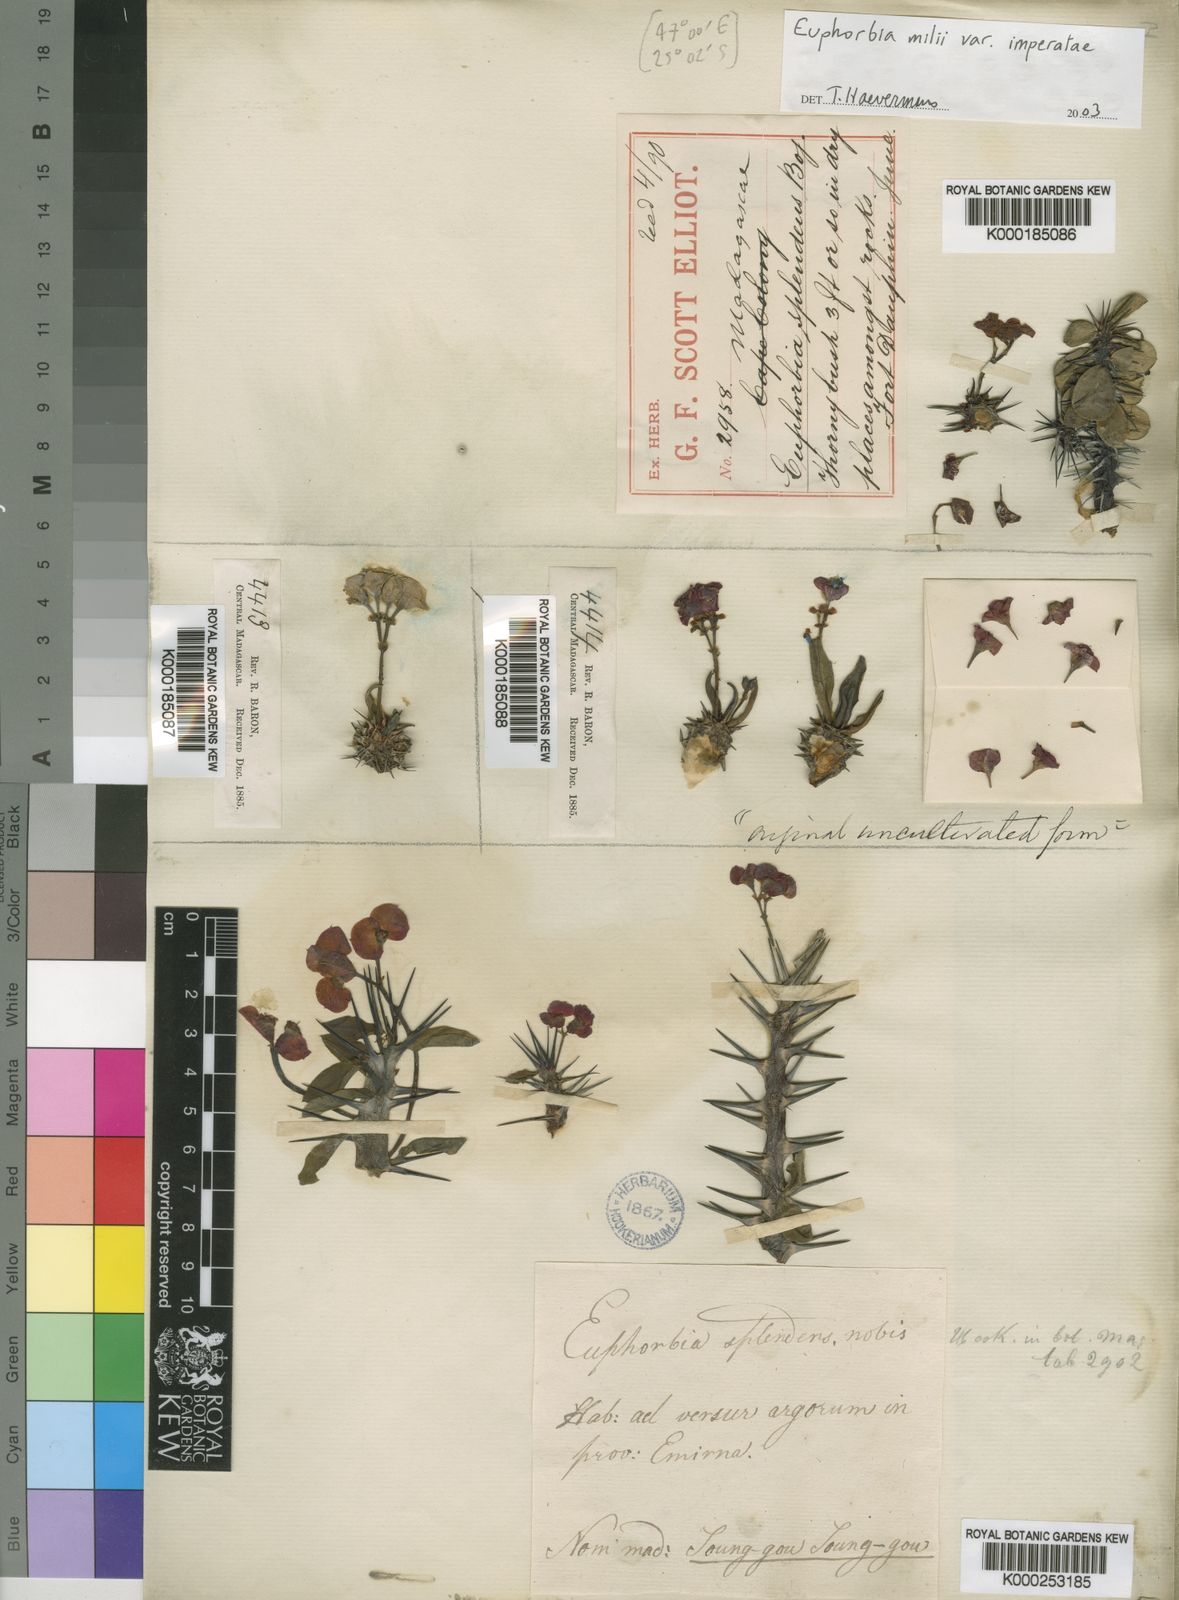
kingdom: Plantae
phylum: Tracheophyta
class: Magnoliopsida
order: Malpighiales
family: Euphorbiaceae
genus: Euphorbia
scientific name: Euphorbia milii
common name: Christplant
